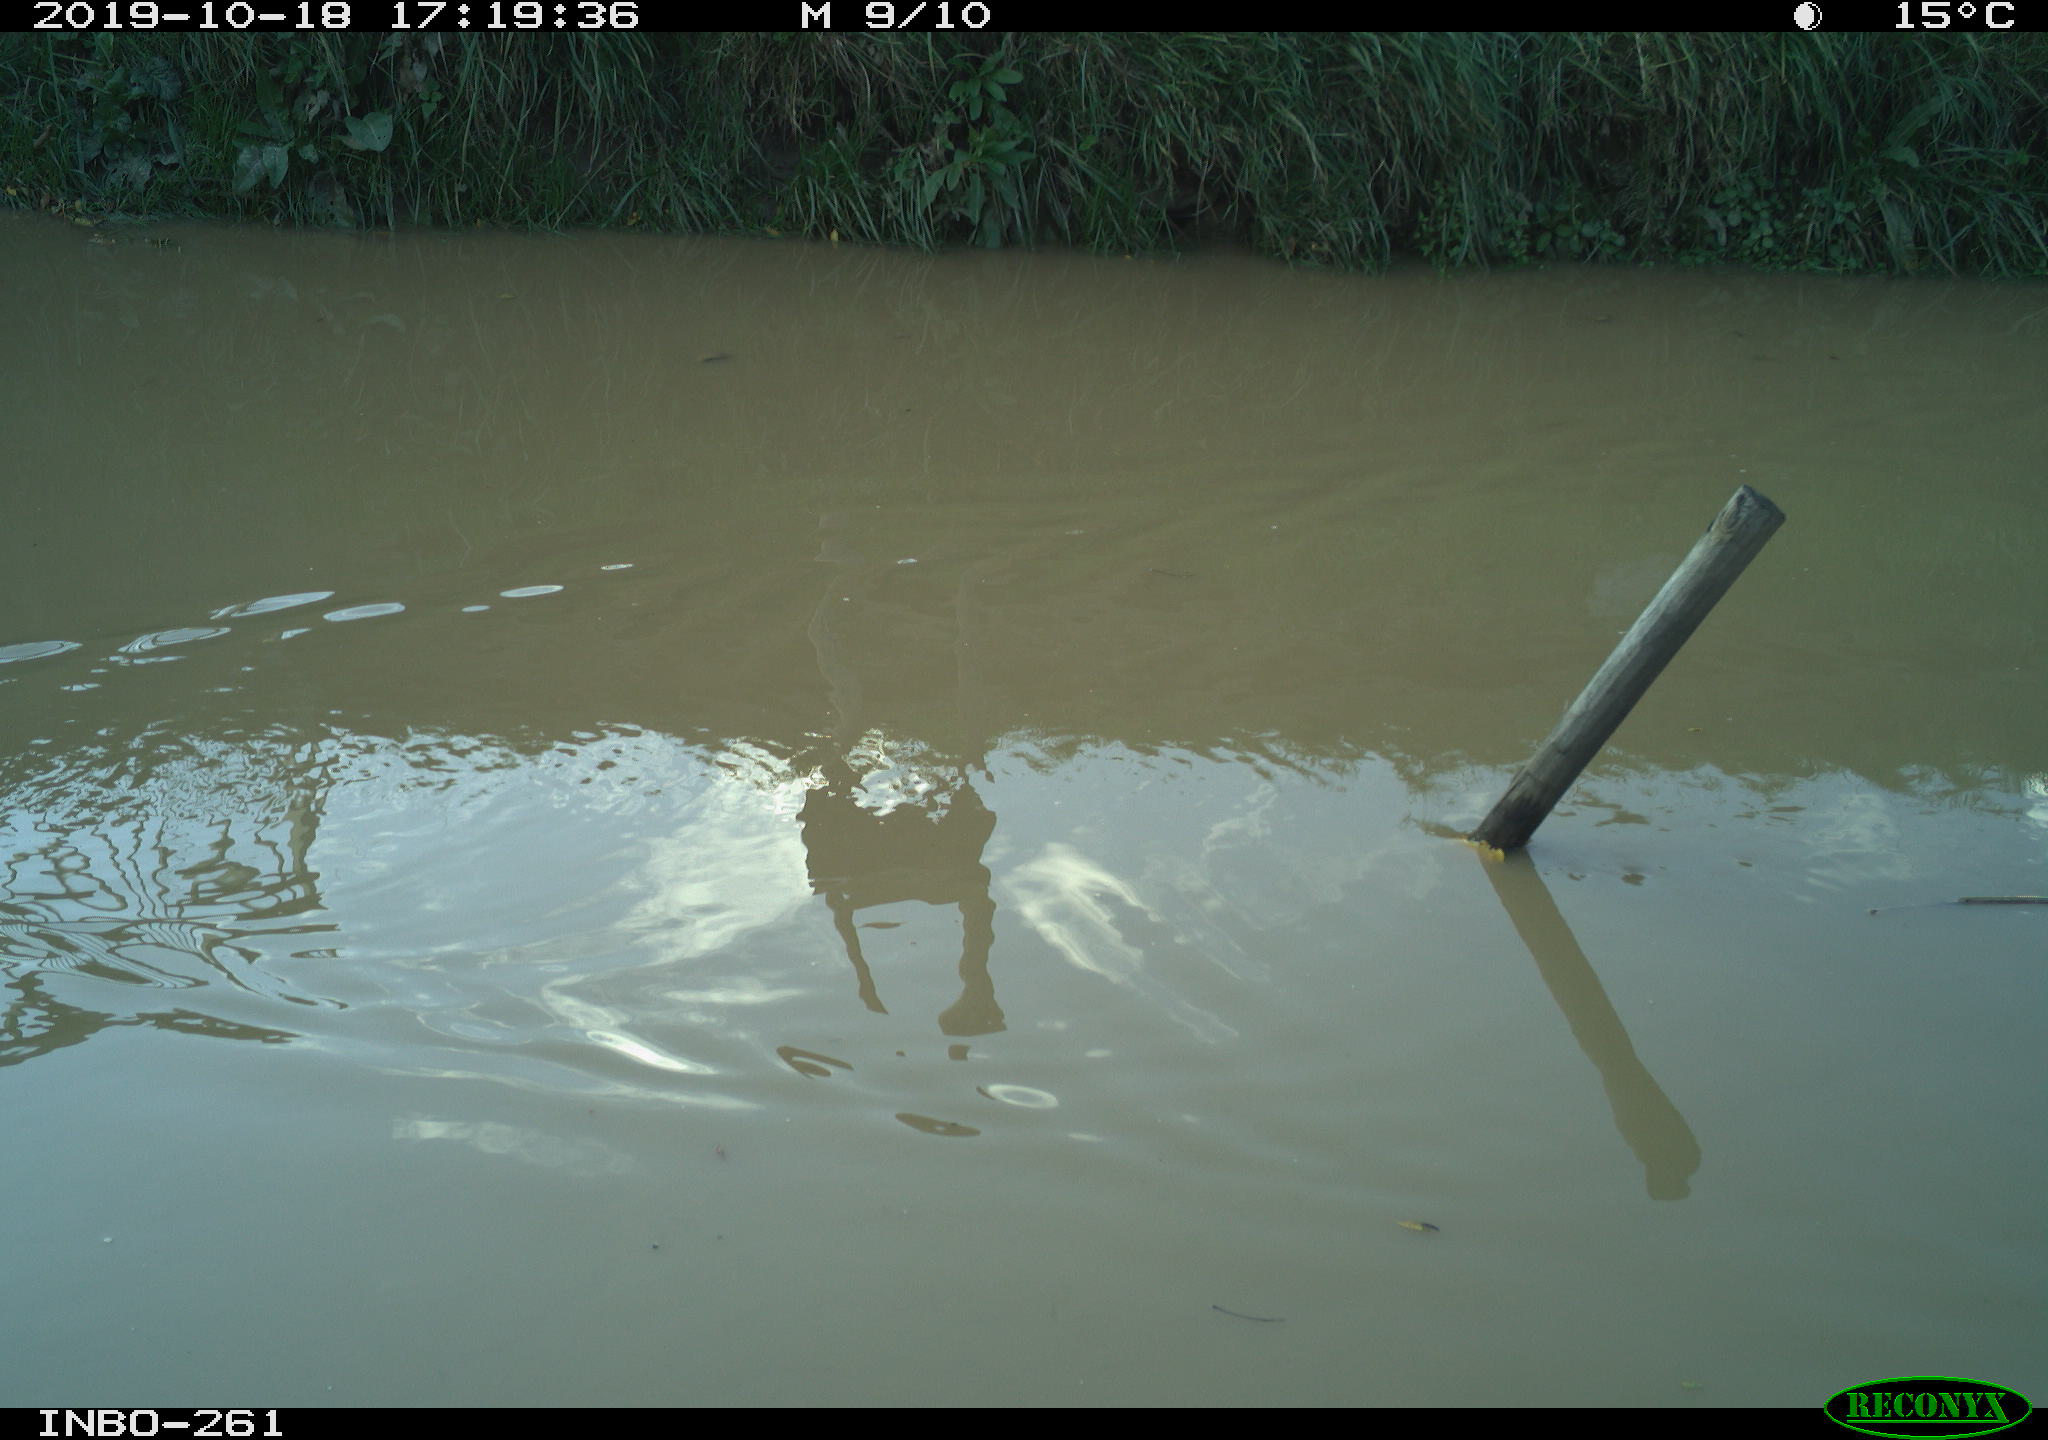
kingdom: Animalia
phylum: Chordata
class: Aves
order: Gruiformes
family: Rallidae
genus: Gallinula
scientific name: Gallinula chloropus
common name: Common moorhen
